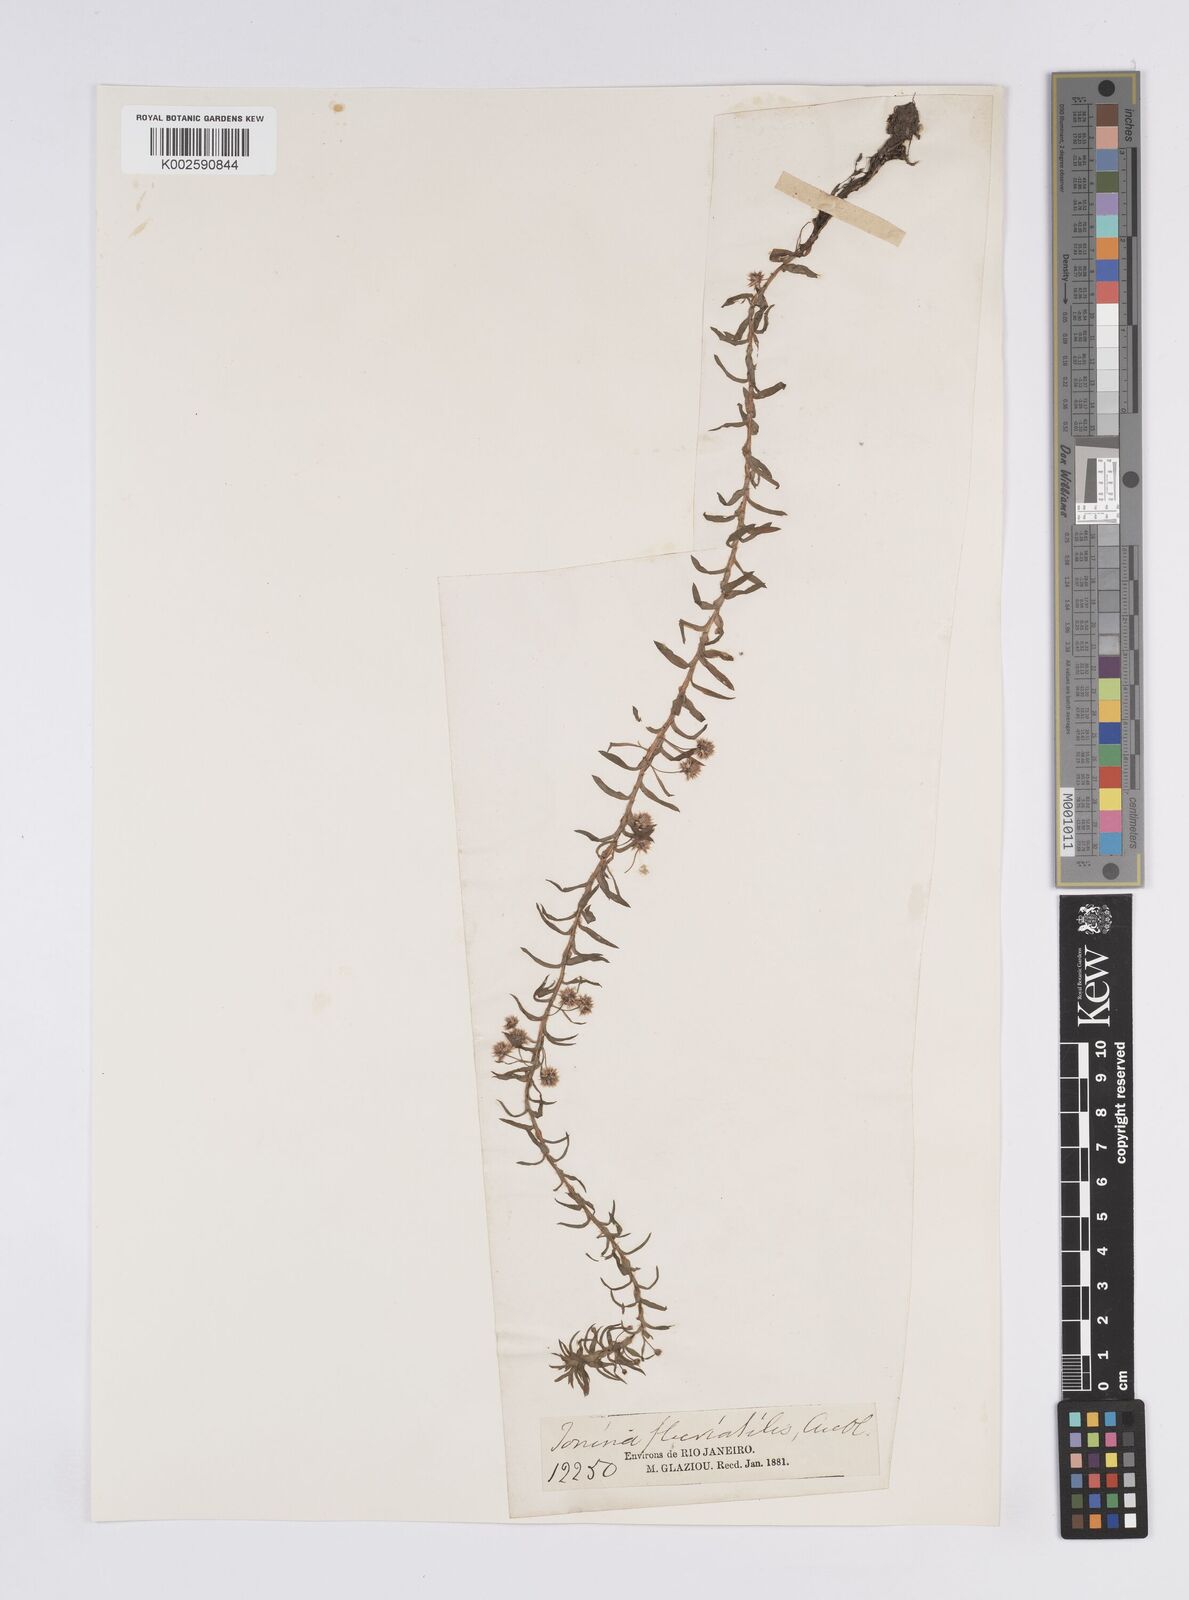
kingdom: Plantae
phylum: Tracheophyta
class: Liliopsida
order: Poales
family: Eriocaulaceae
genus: Paepalanthus
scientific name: Paepalanthus fluviatilis
